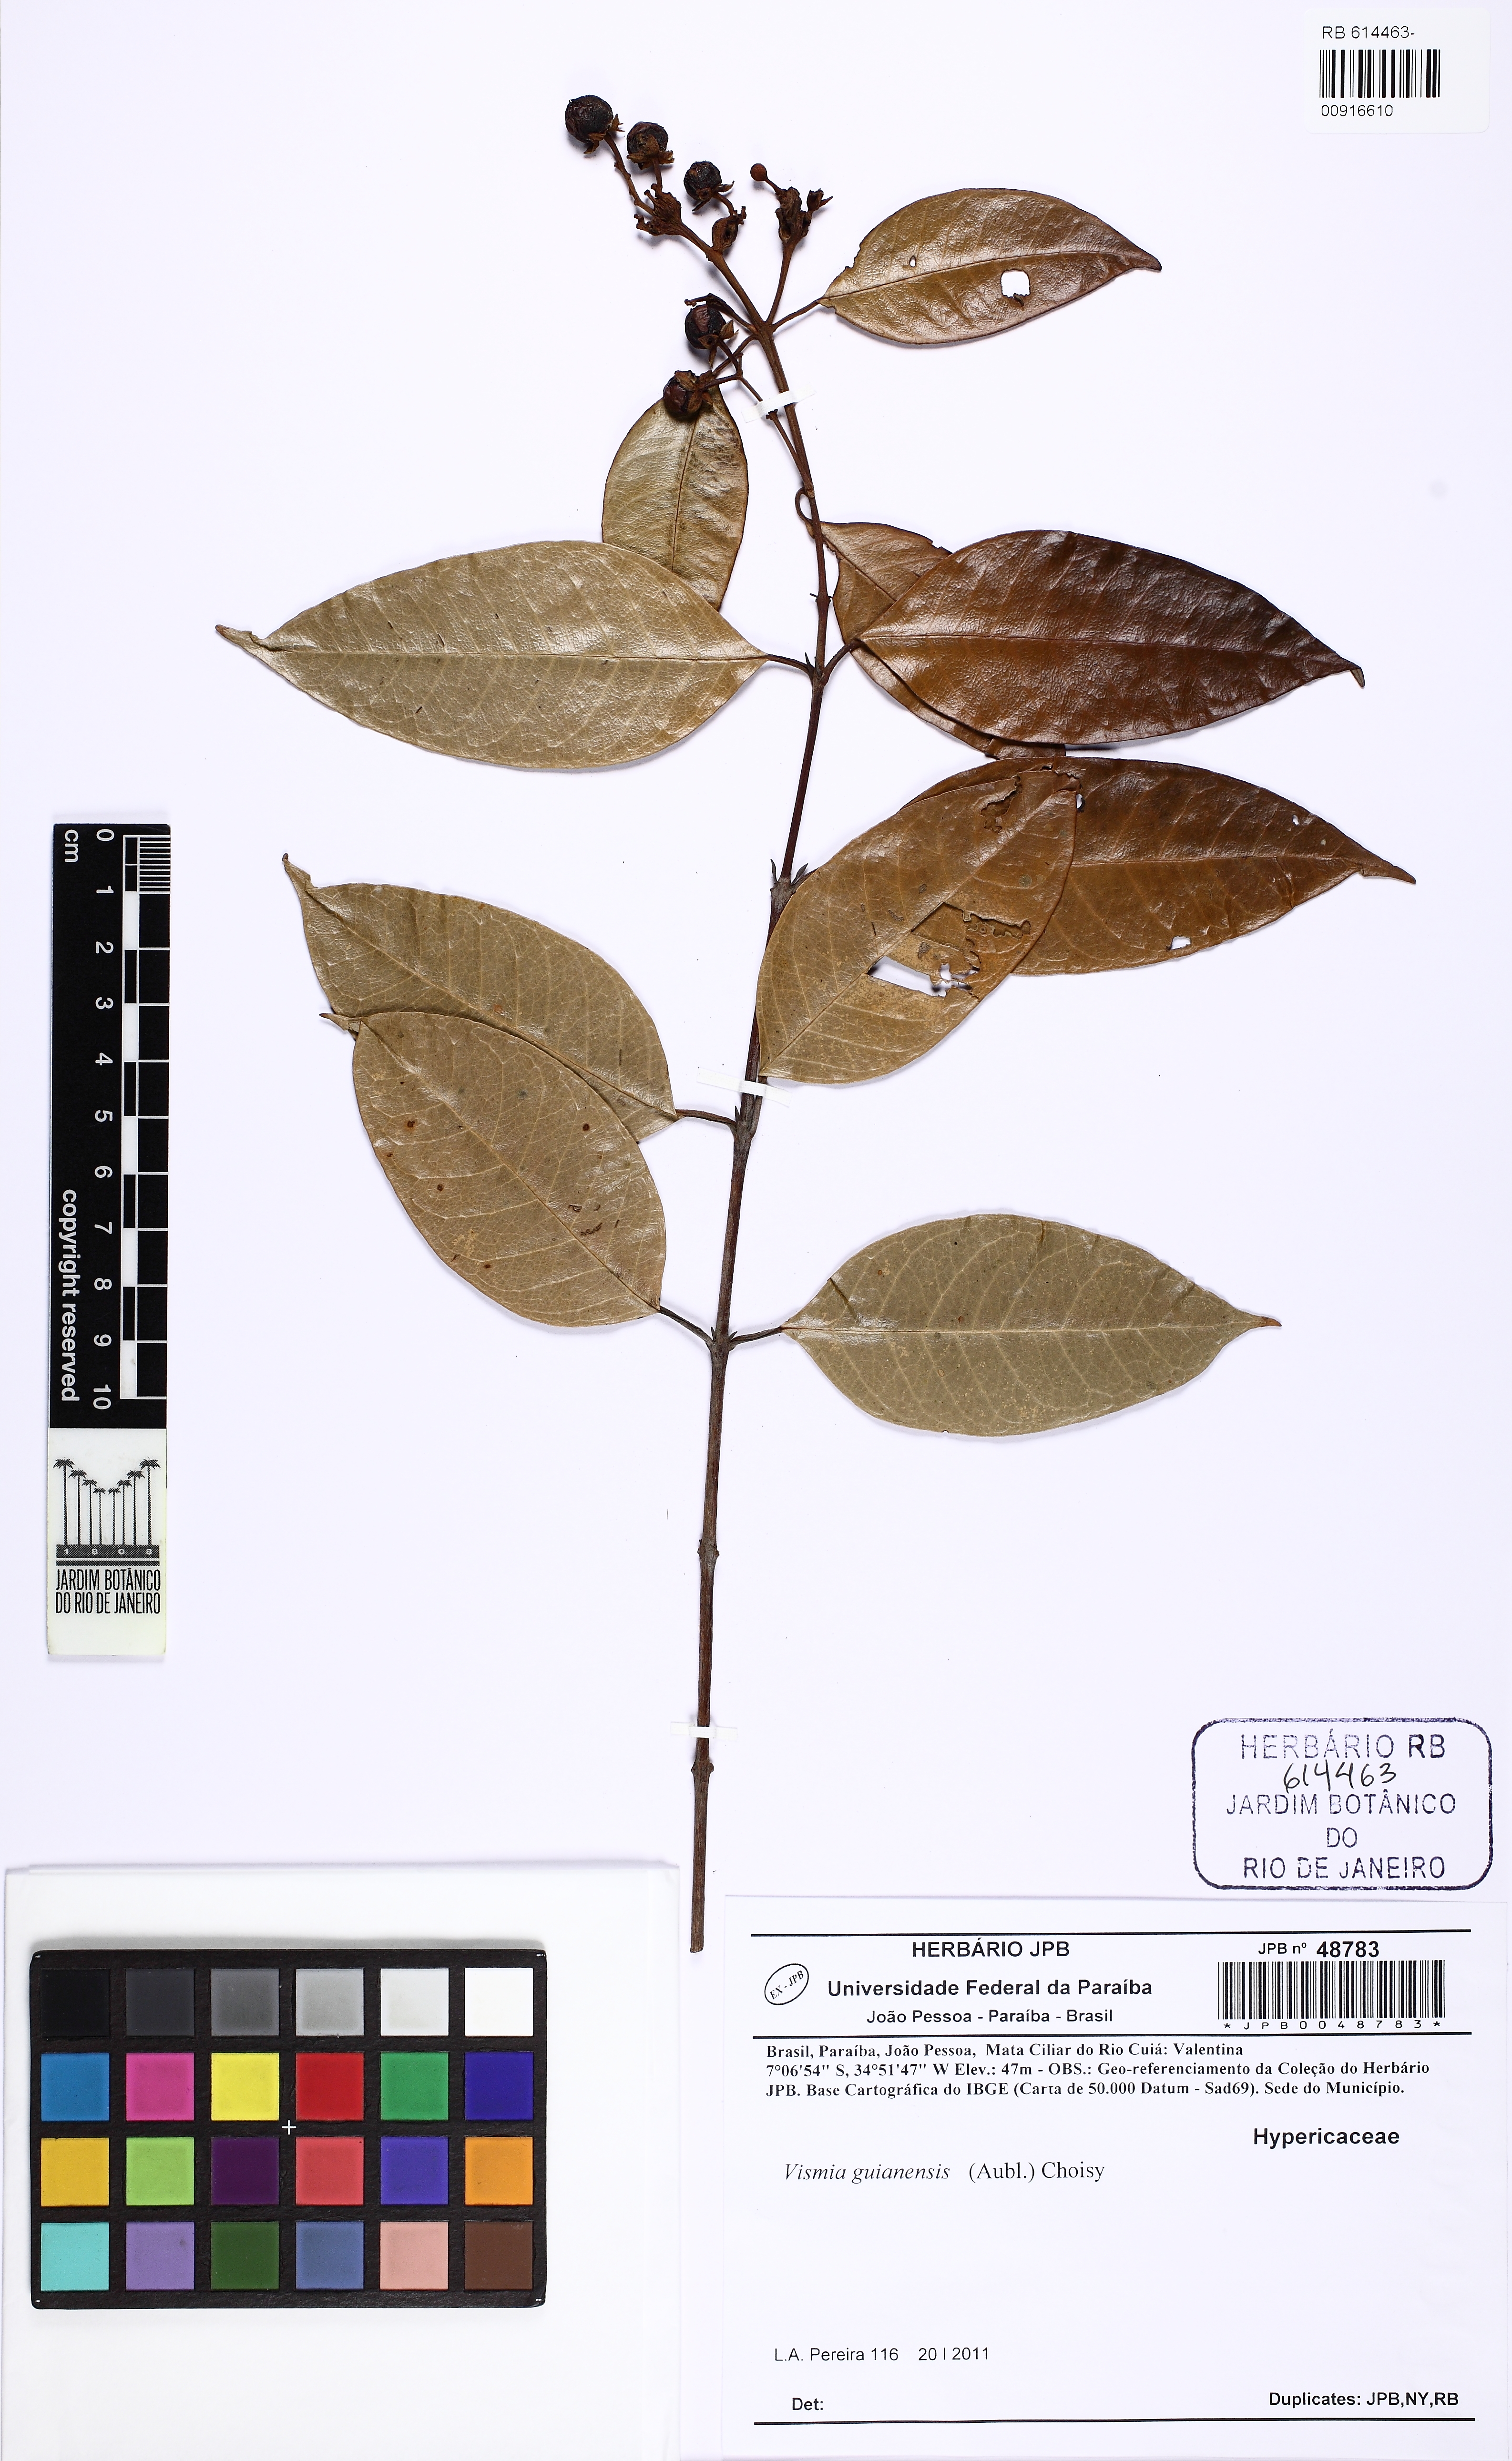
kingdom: Plantae
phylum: Tracheophyta
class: Magnoliopsida
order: Malpighiales
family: Hypericaceae
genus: Vismia
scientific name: Vismia guianensis
